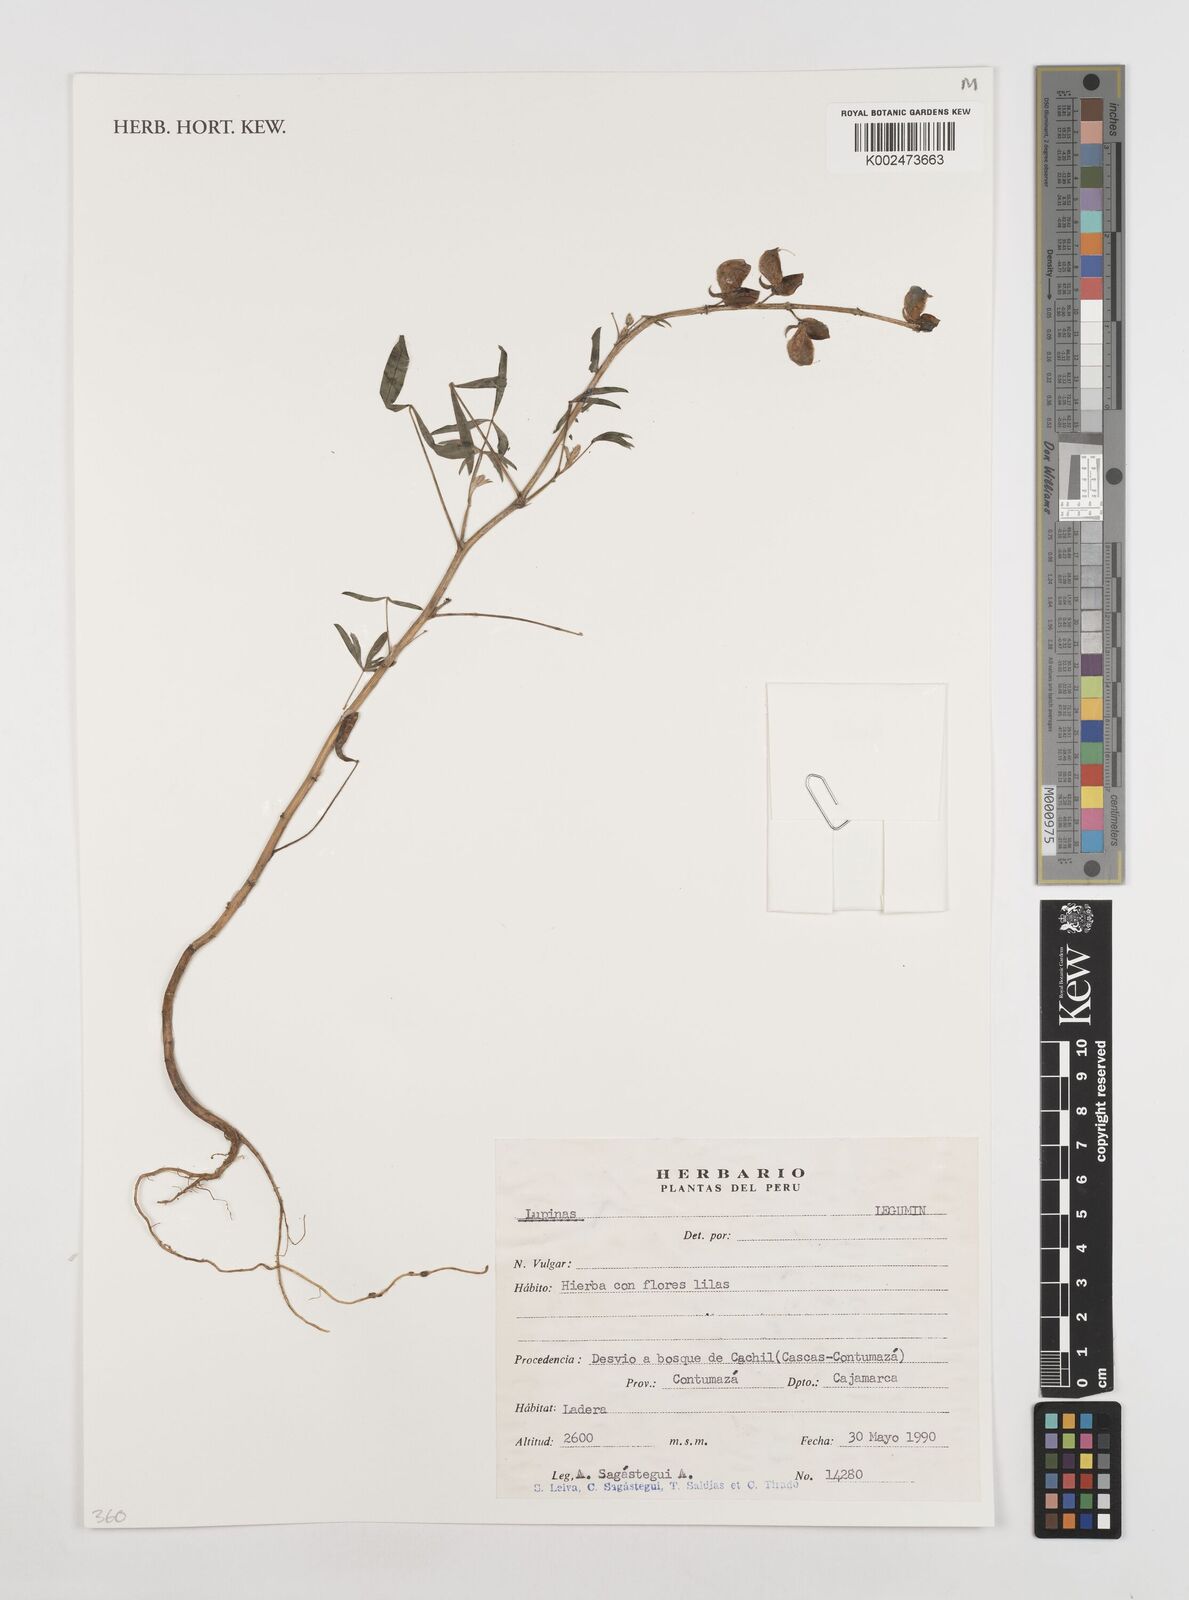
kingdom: Plantae
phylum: Tracheophyta
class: Magnoliopsida
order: Fabales
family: Fabaceae
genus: Lupinus
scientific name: Lupinus
